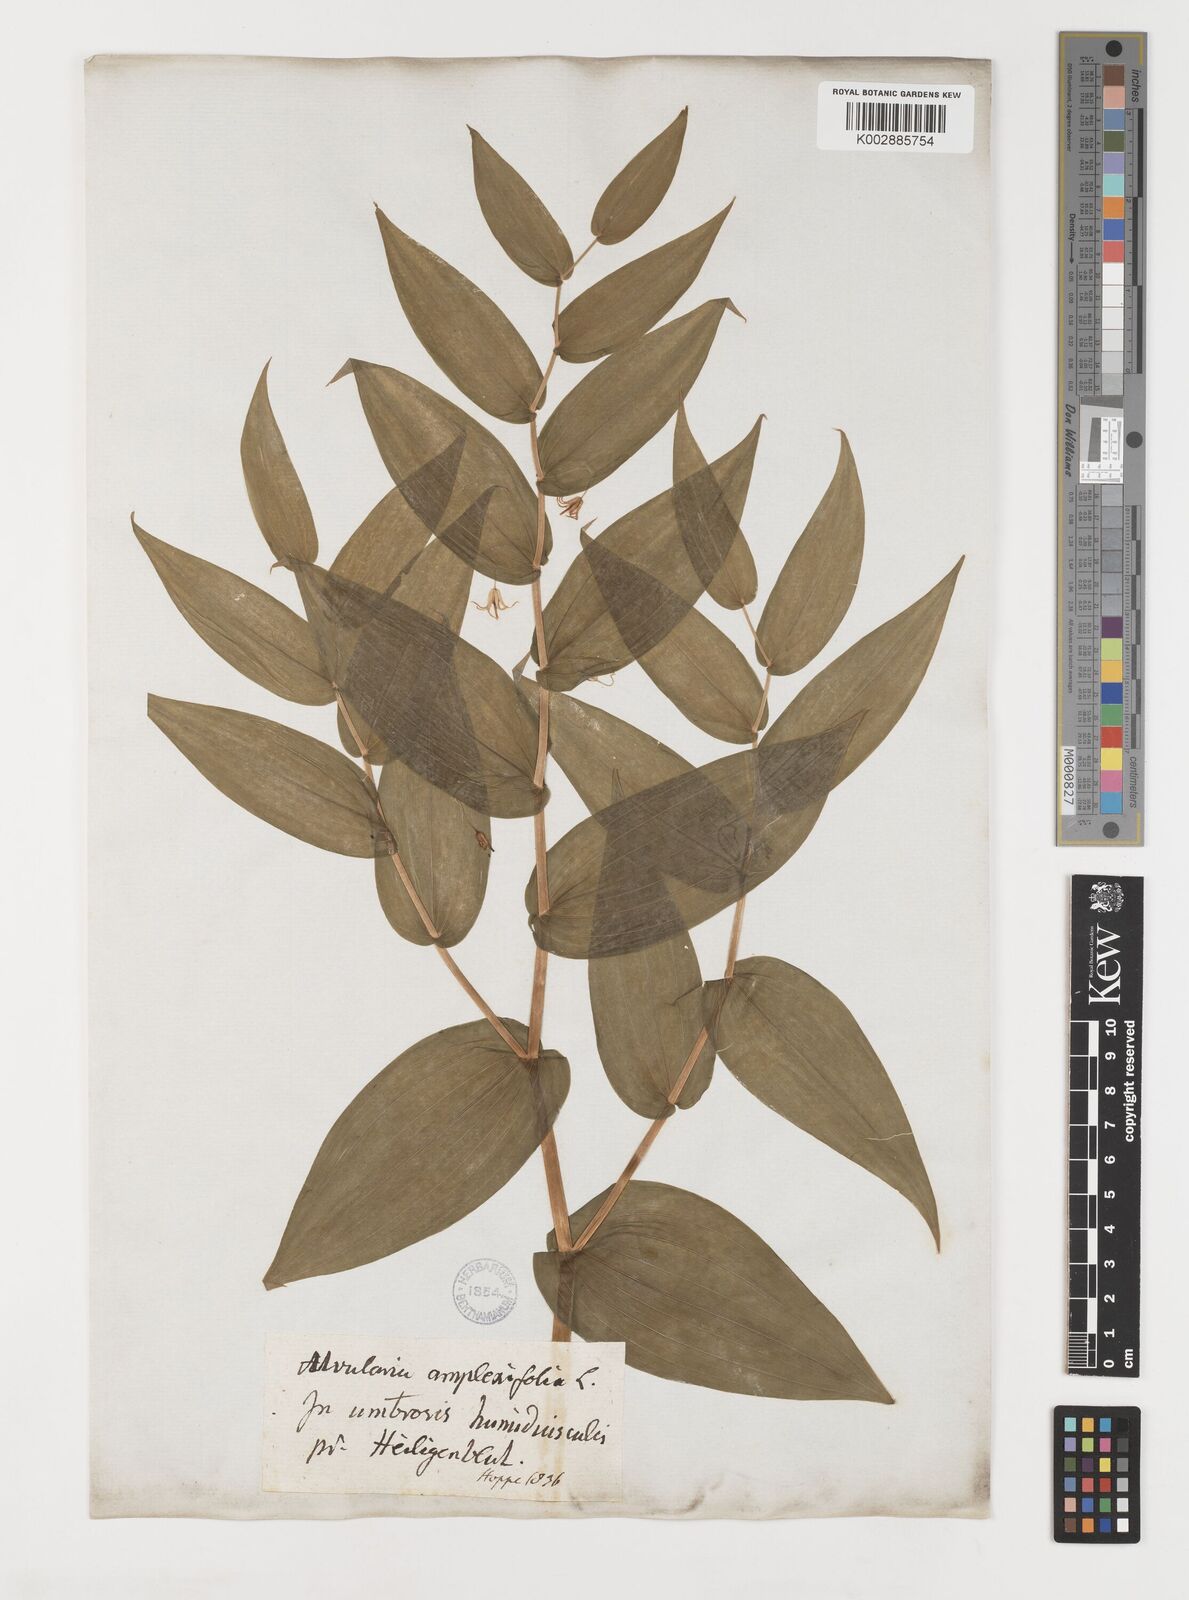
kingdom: Plantae
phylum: Tracheophyta
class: Liliopsida
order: Liliales
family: Liliaceae
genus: Streptopus
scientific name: Streptopus amplexifolius
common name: Clasp twisted stalk
